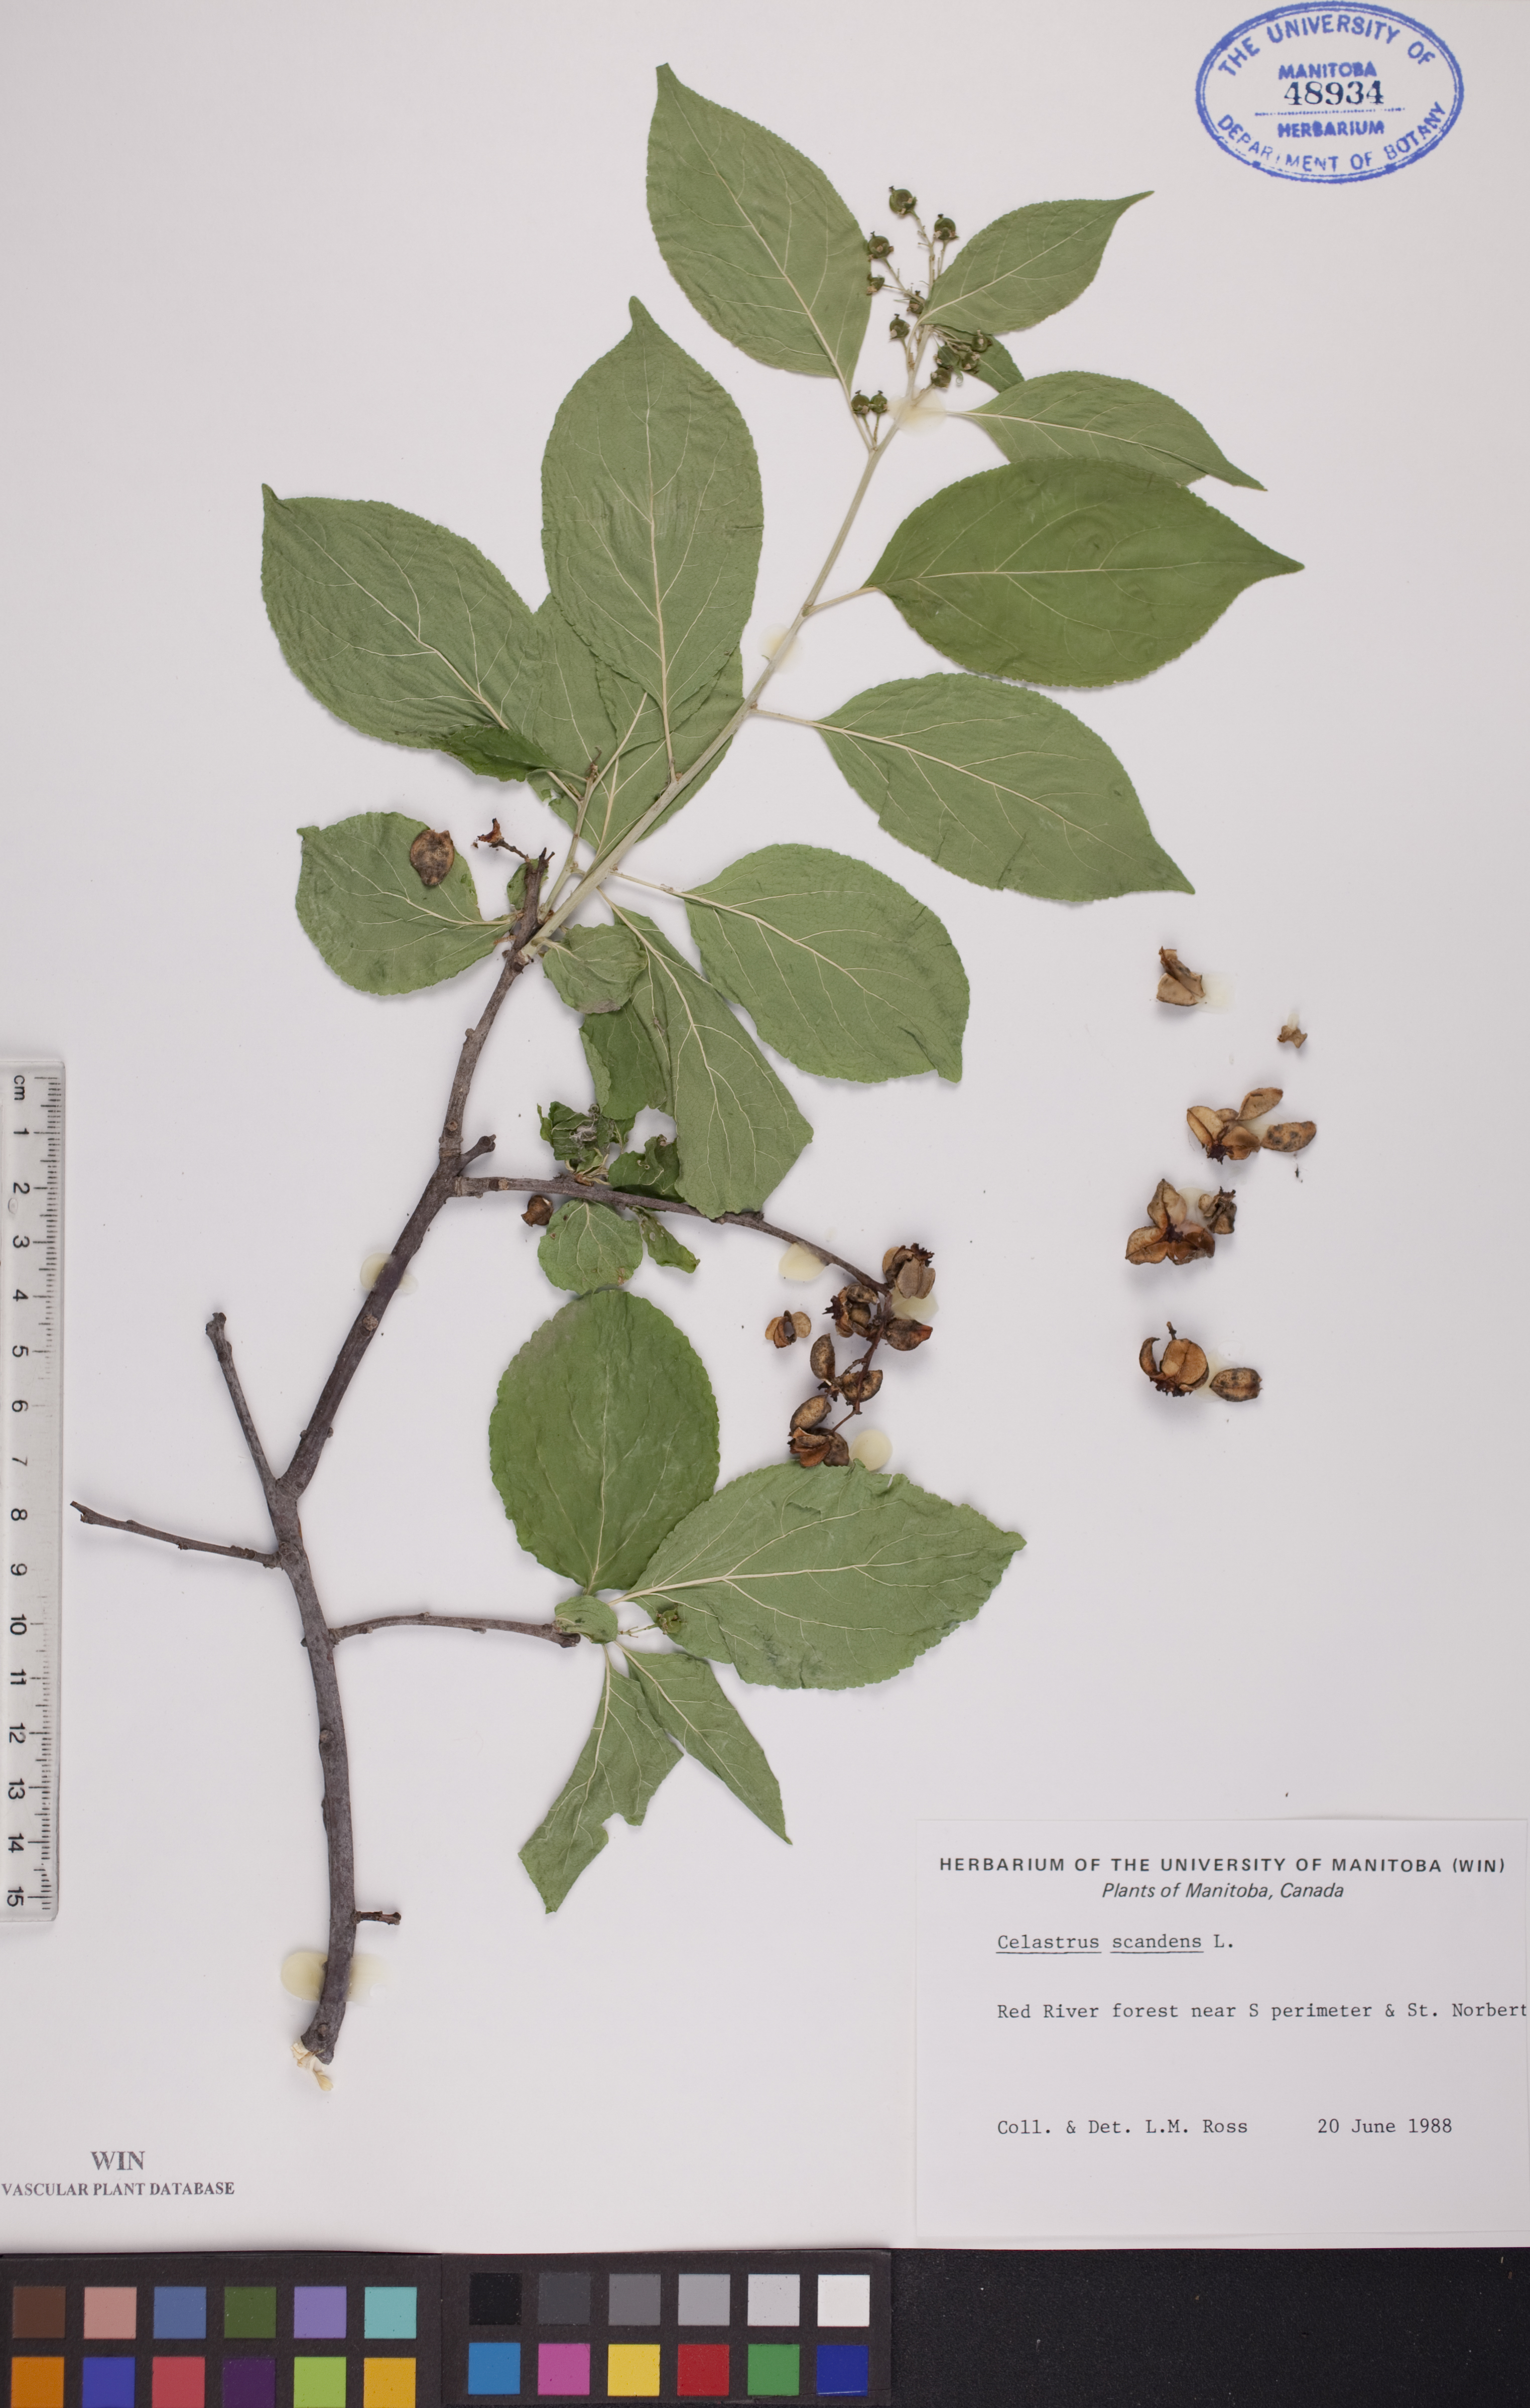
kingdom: Plantae
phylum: Tracheophyta
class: Magnoliopsida
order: Celastrales
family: Celastraceae
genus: Celastrus
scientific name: Celastrus scandens
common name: American bittersweet
